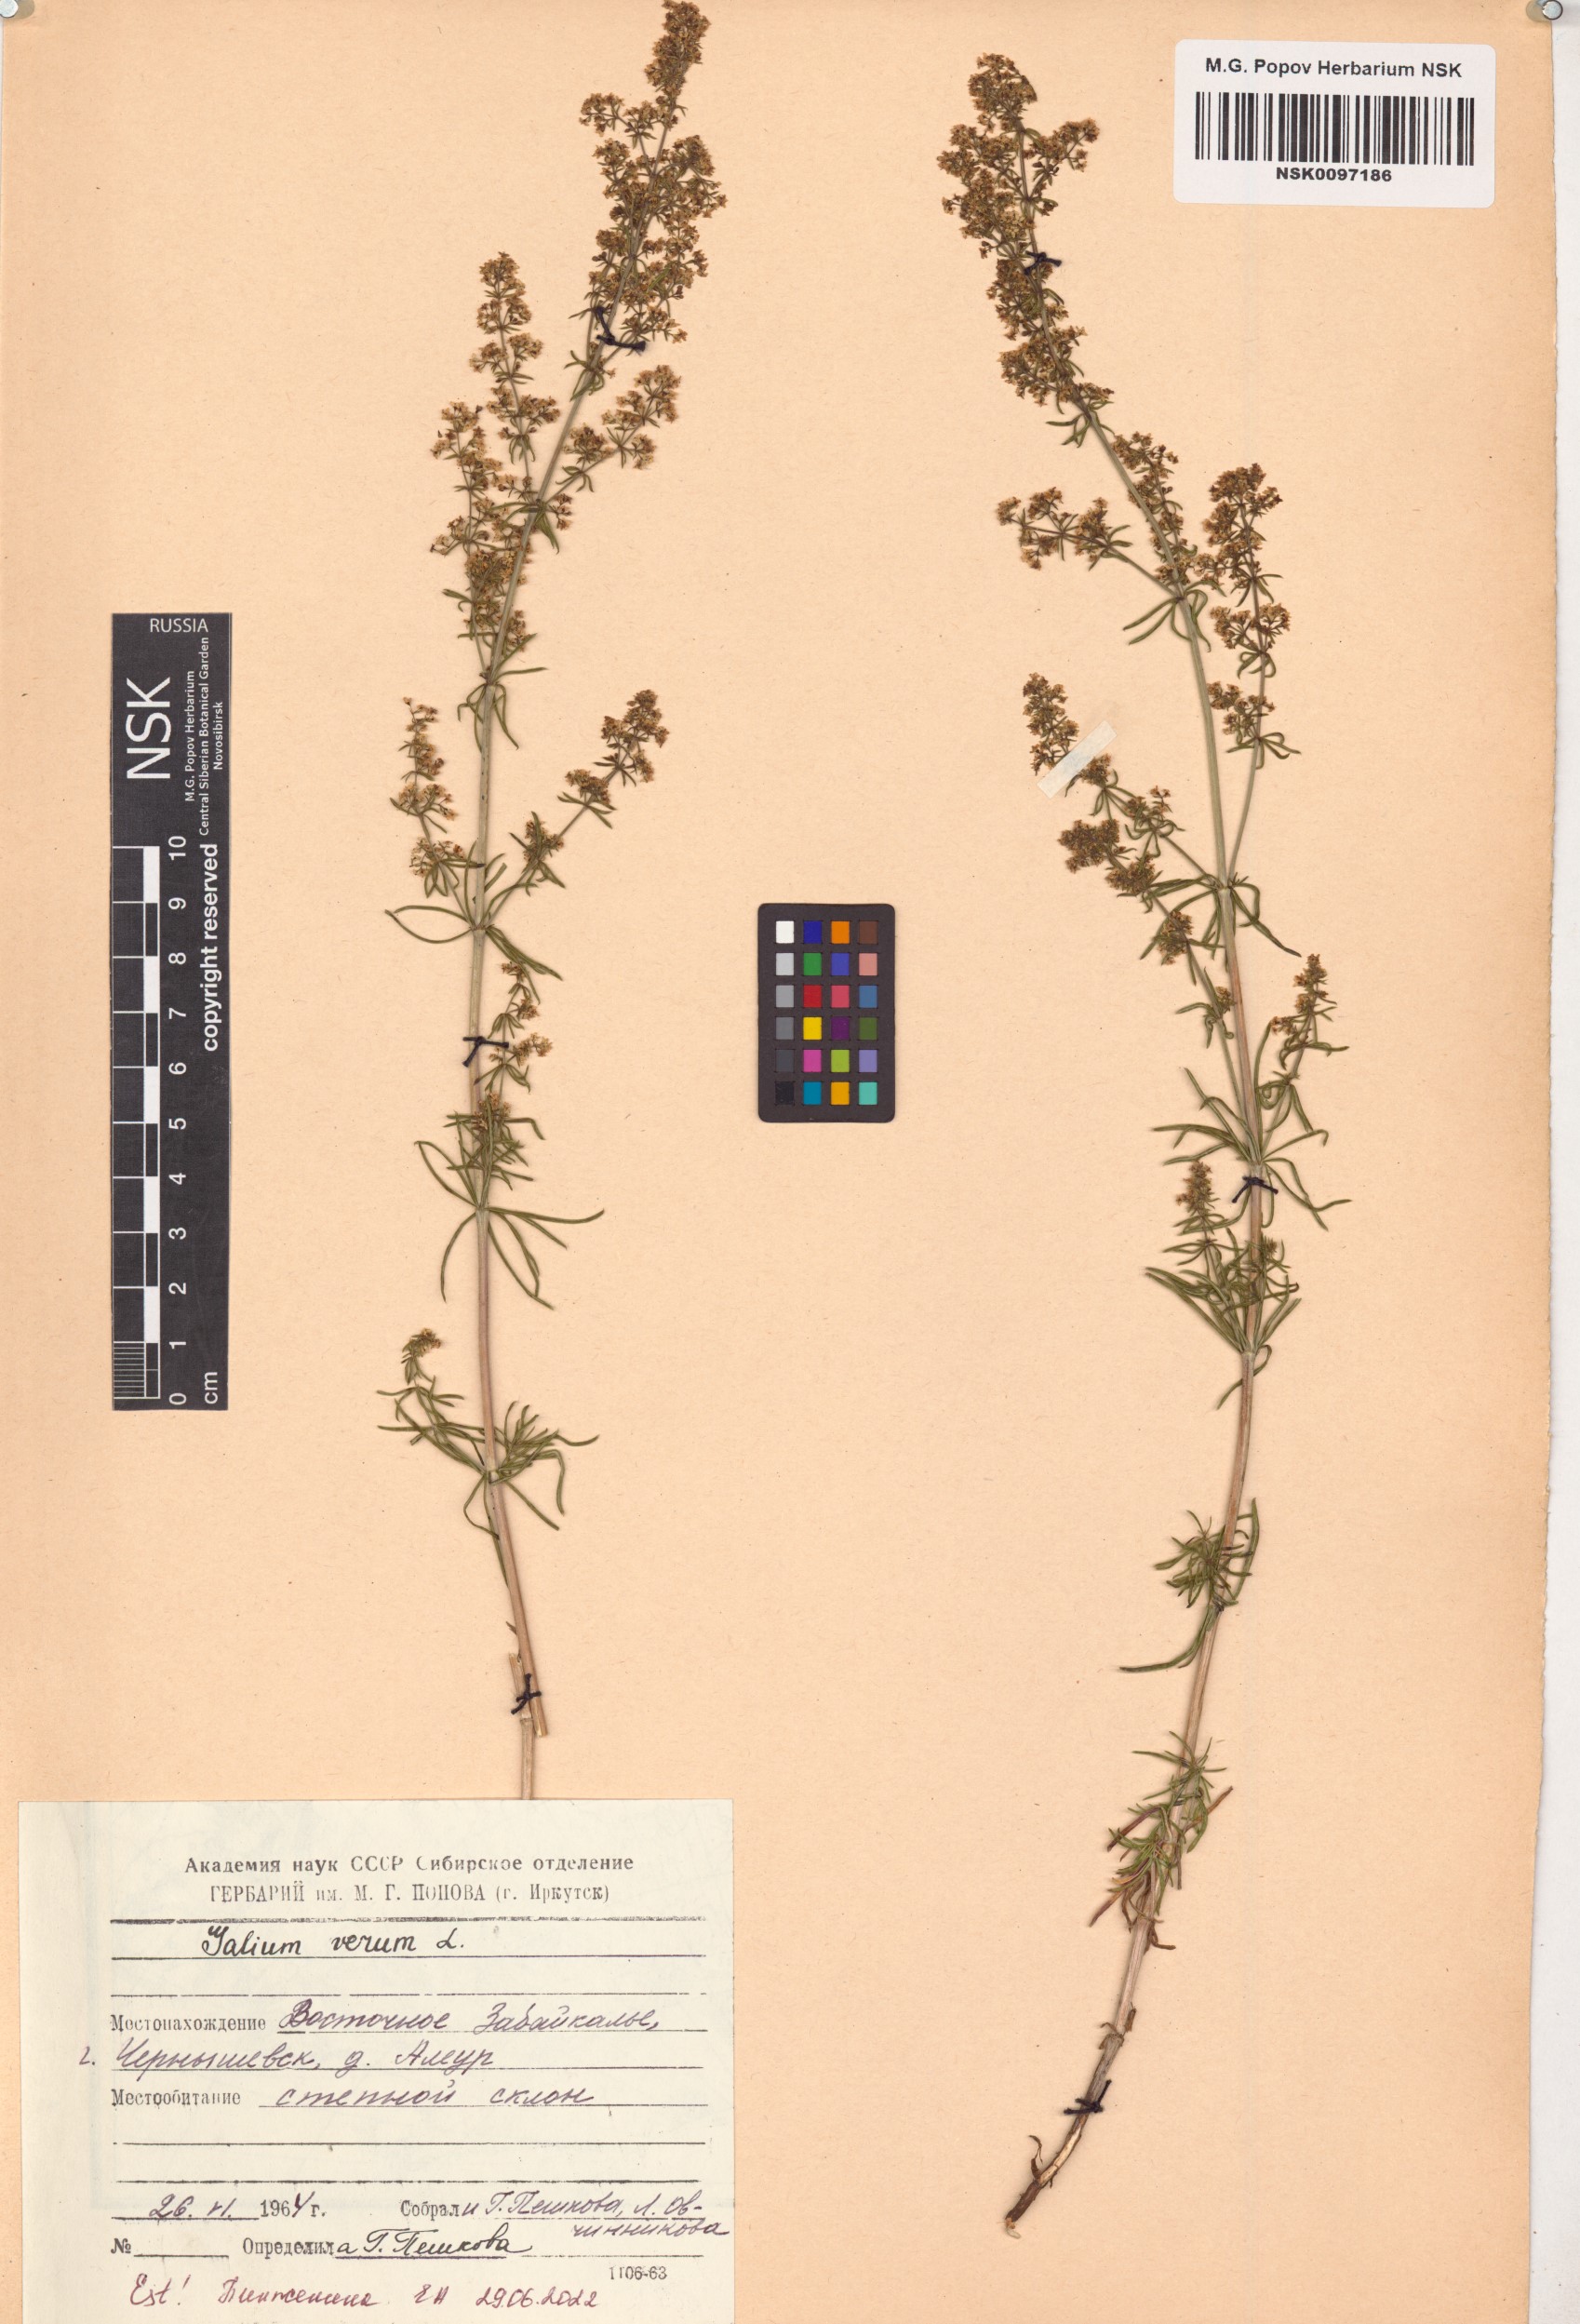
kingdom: Plantae
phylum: Tracheophyta
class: Magnoliopsida
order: Gentianales
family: Rubiaceae
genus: Galium
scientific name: Galium verum
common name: Lady's bedstraw
